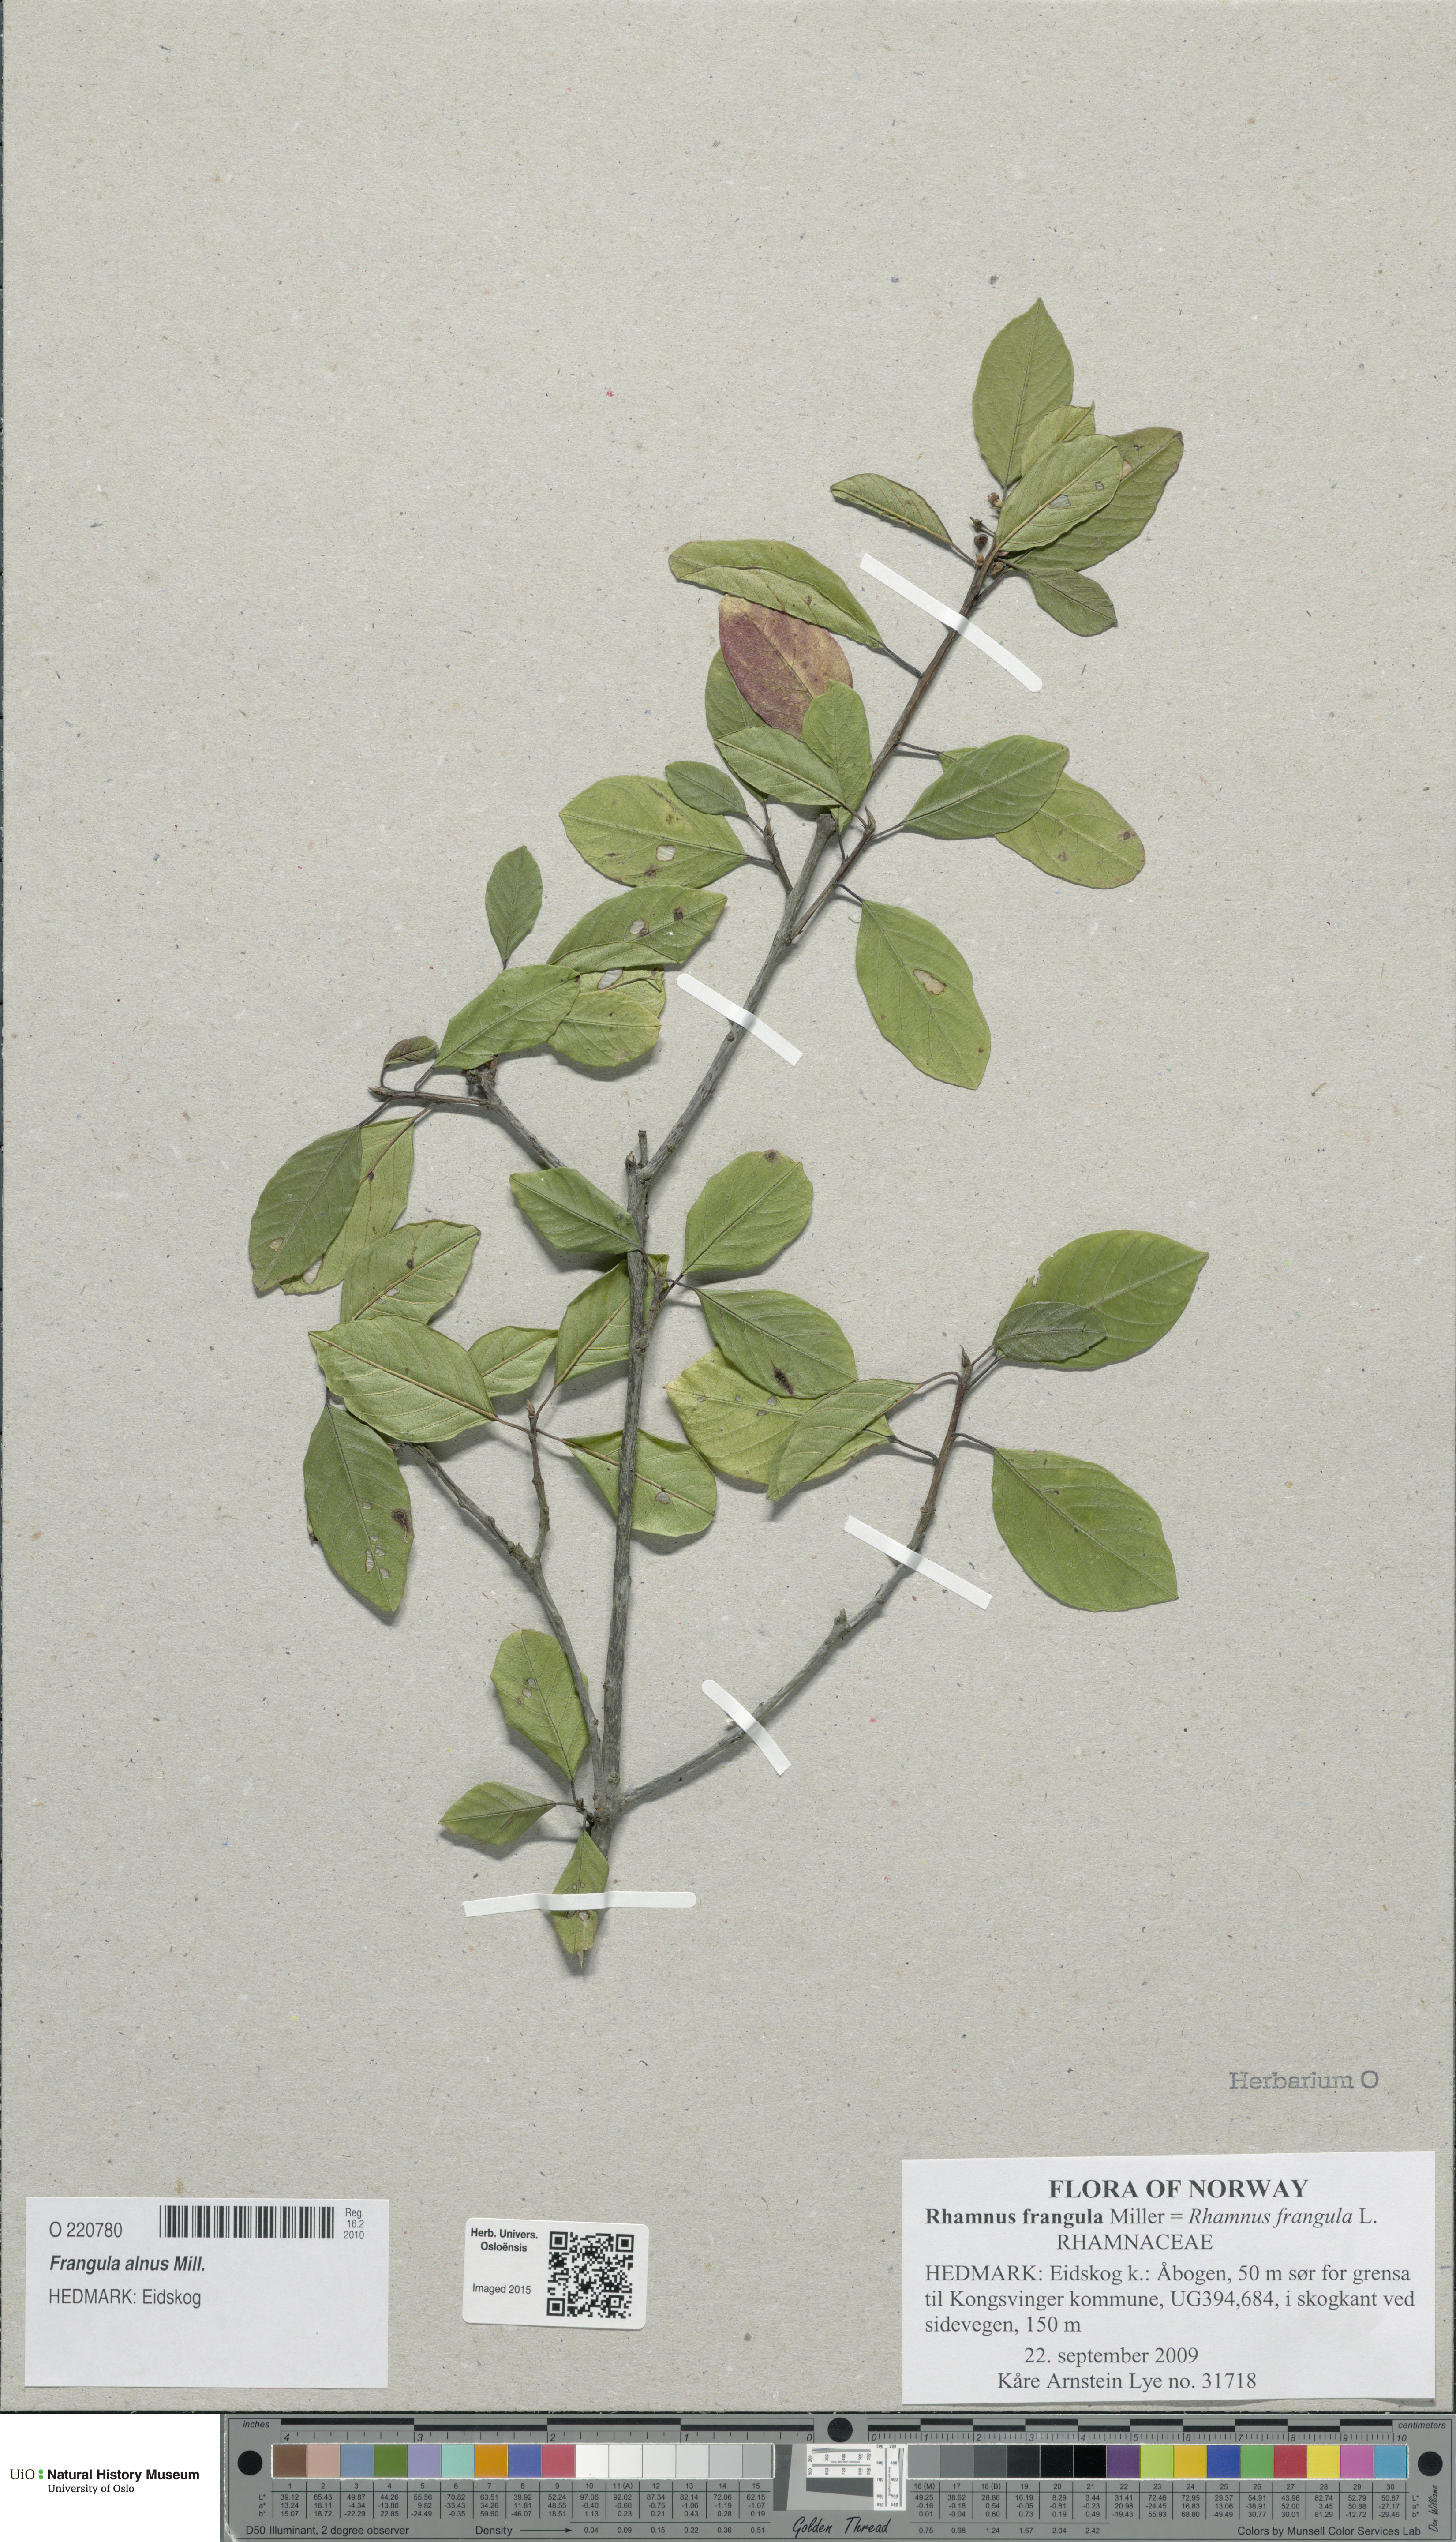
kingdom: Plantae
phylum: Tracheophyta
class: Magnoliopsida
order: Rosales
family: Rhamnaceae
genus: Frangula
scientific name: Frangula alnus
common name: Alder buckthorn
